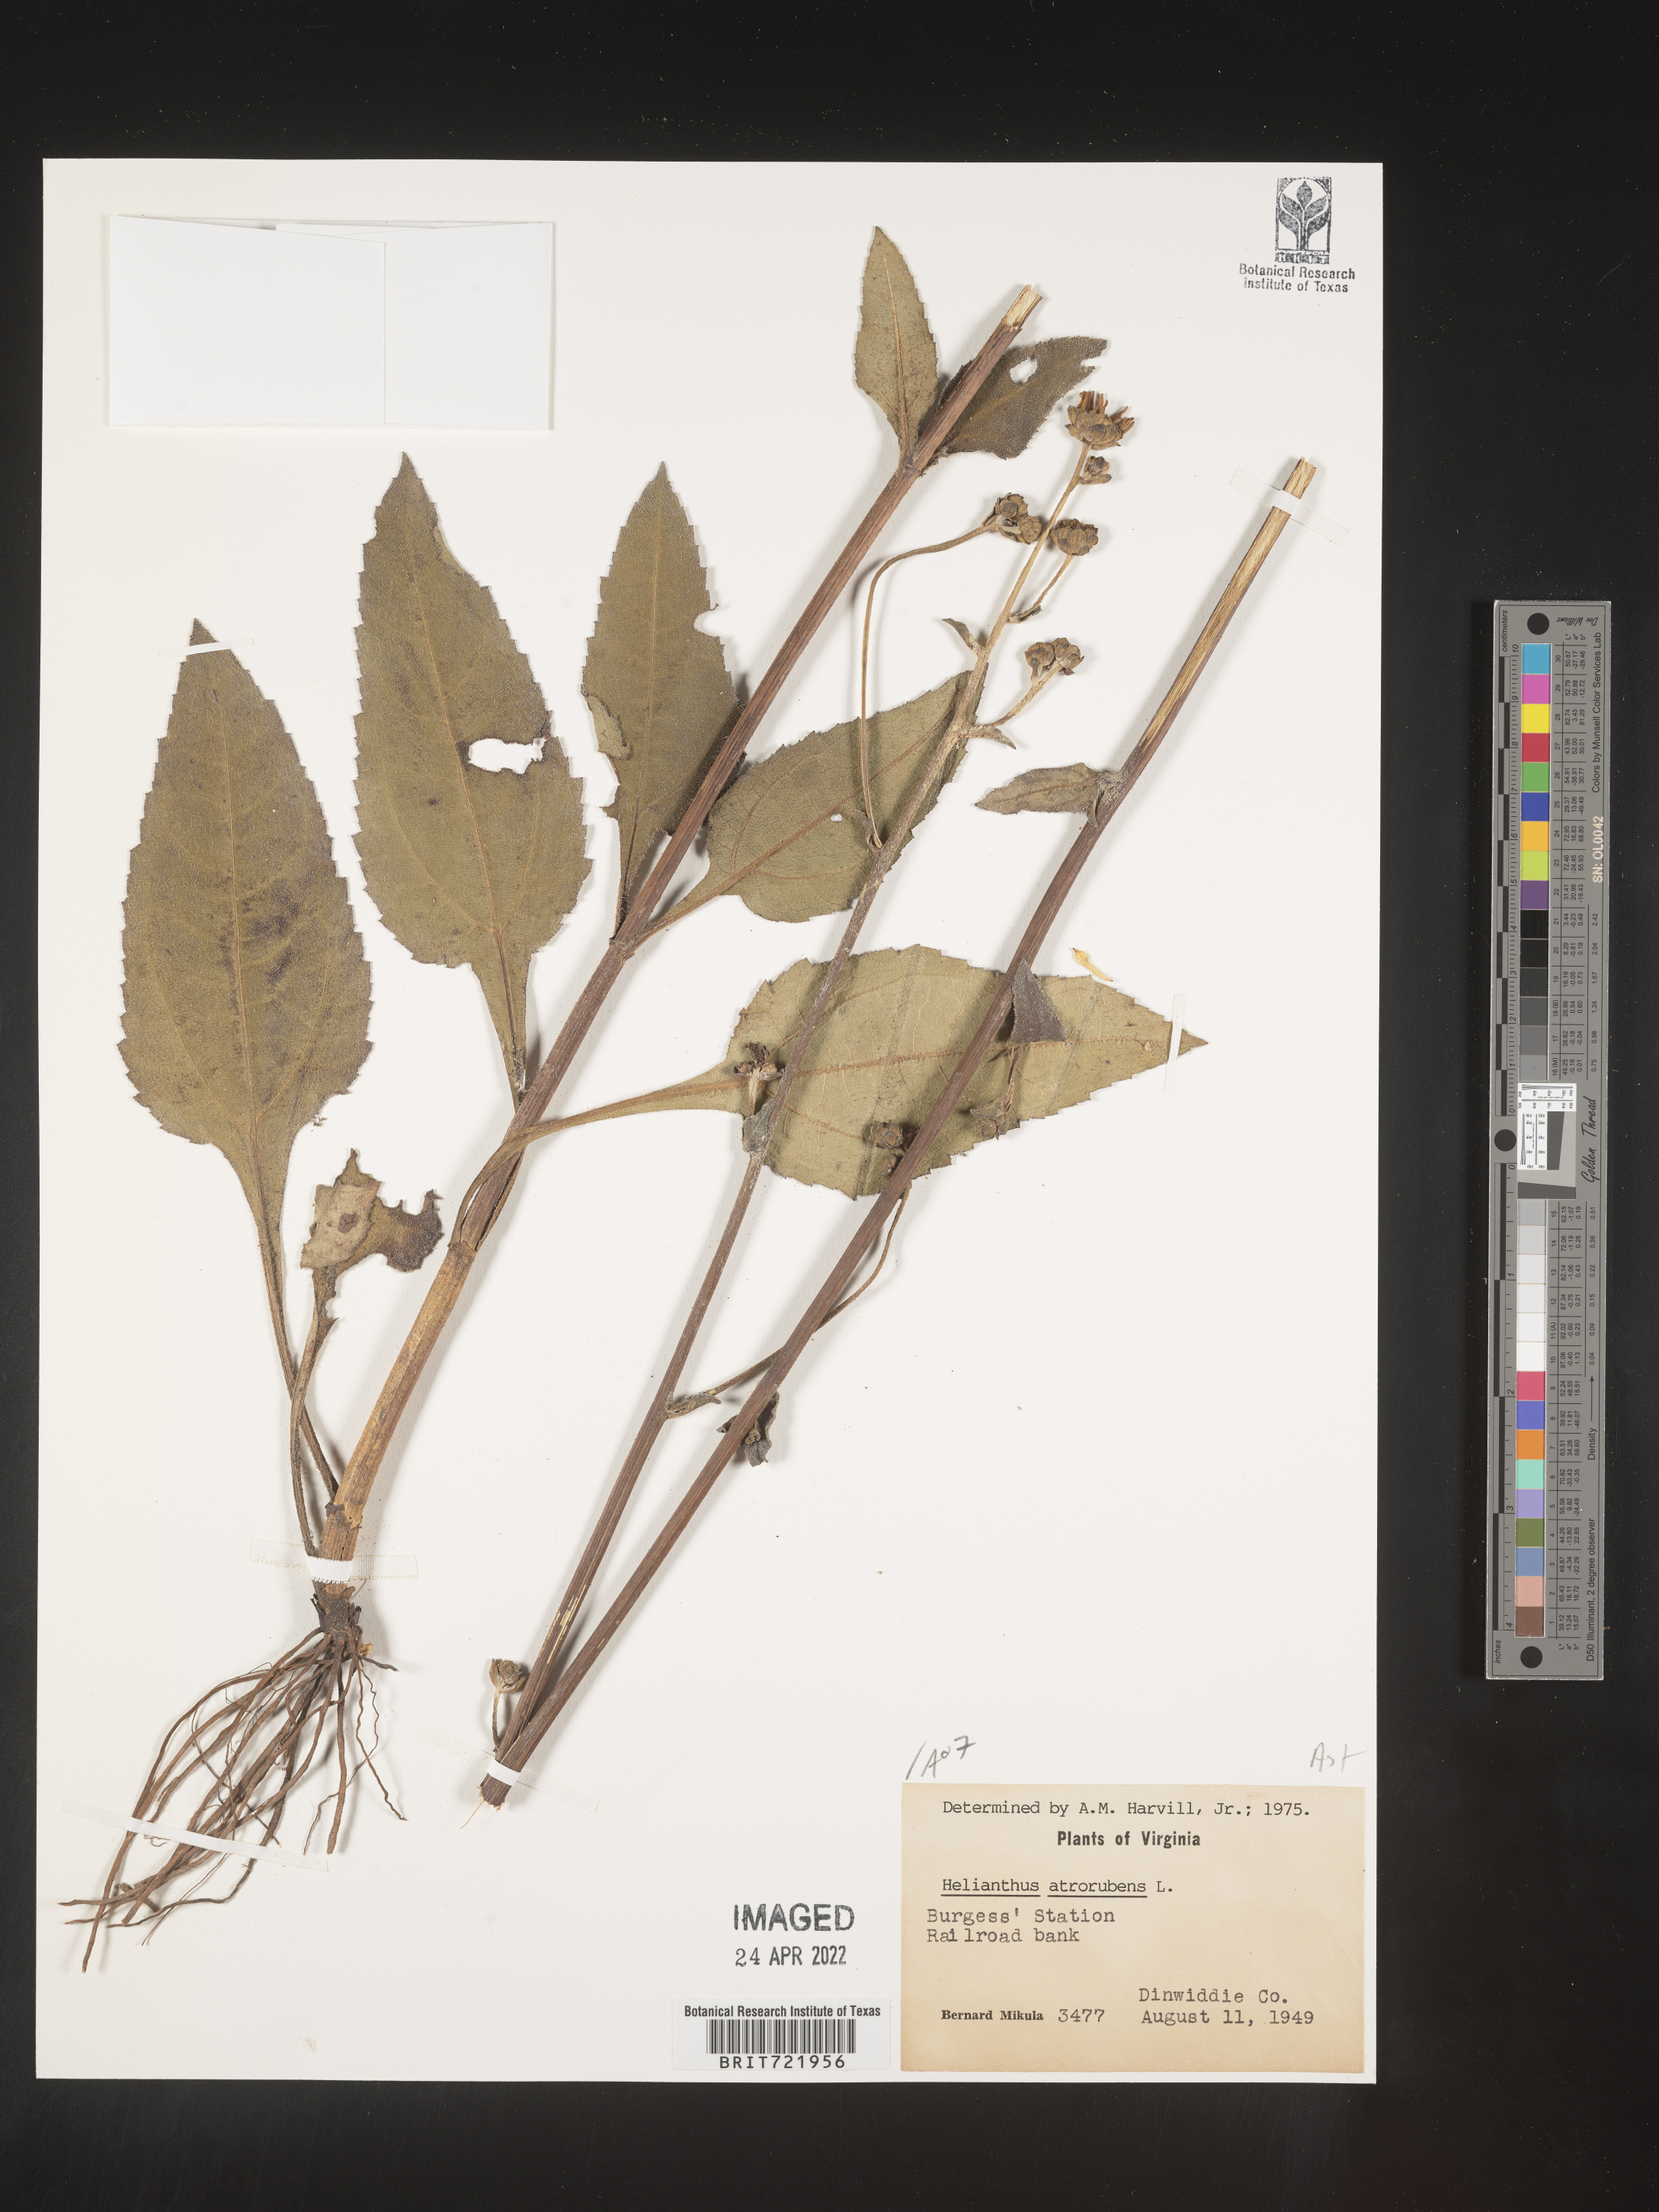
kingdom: Plantae
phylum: Tracheophyta
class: Magnoliopsida
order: Asterales
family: Asteraceae
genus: Helianthus
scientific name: Helianthus atrorubens
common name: Dark-eyed sunflower
